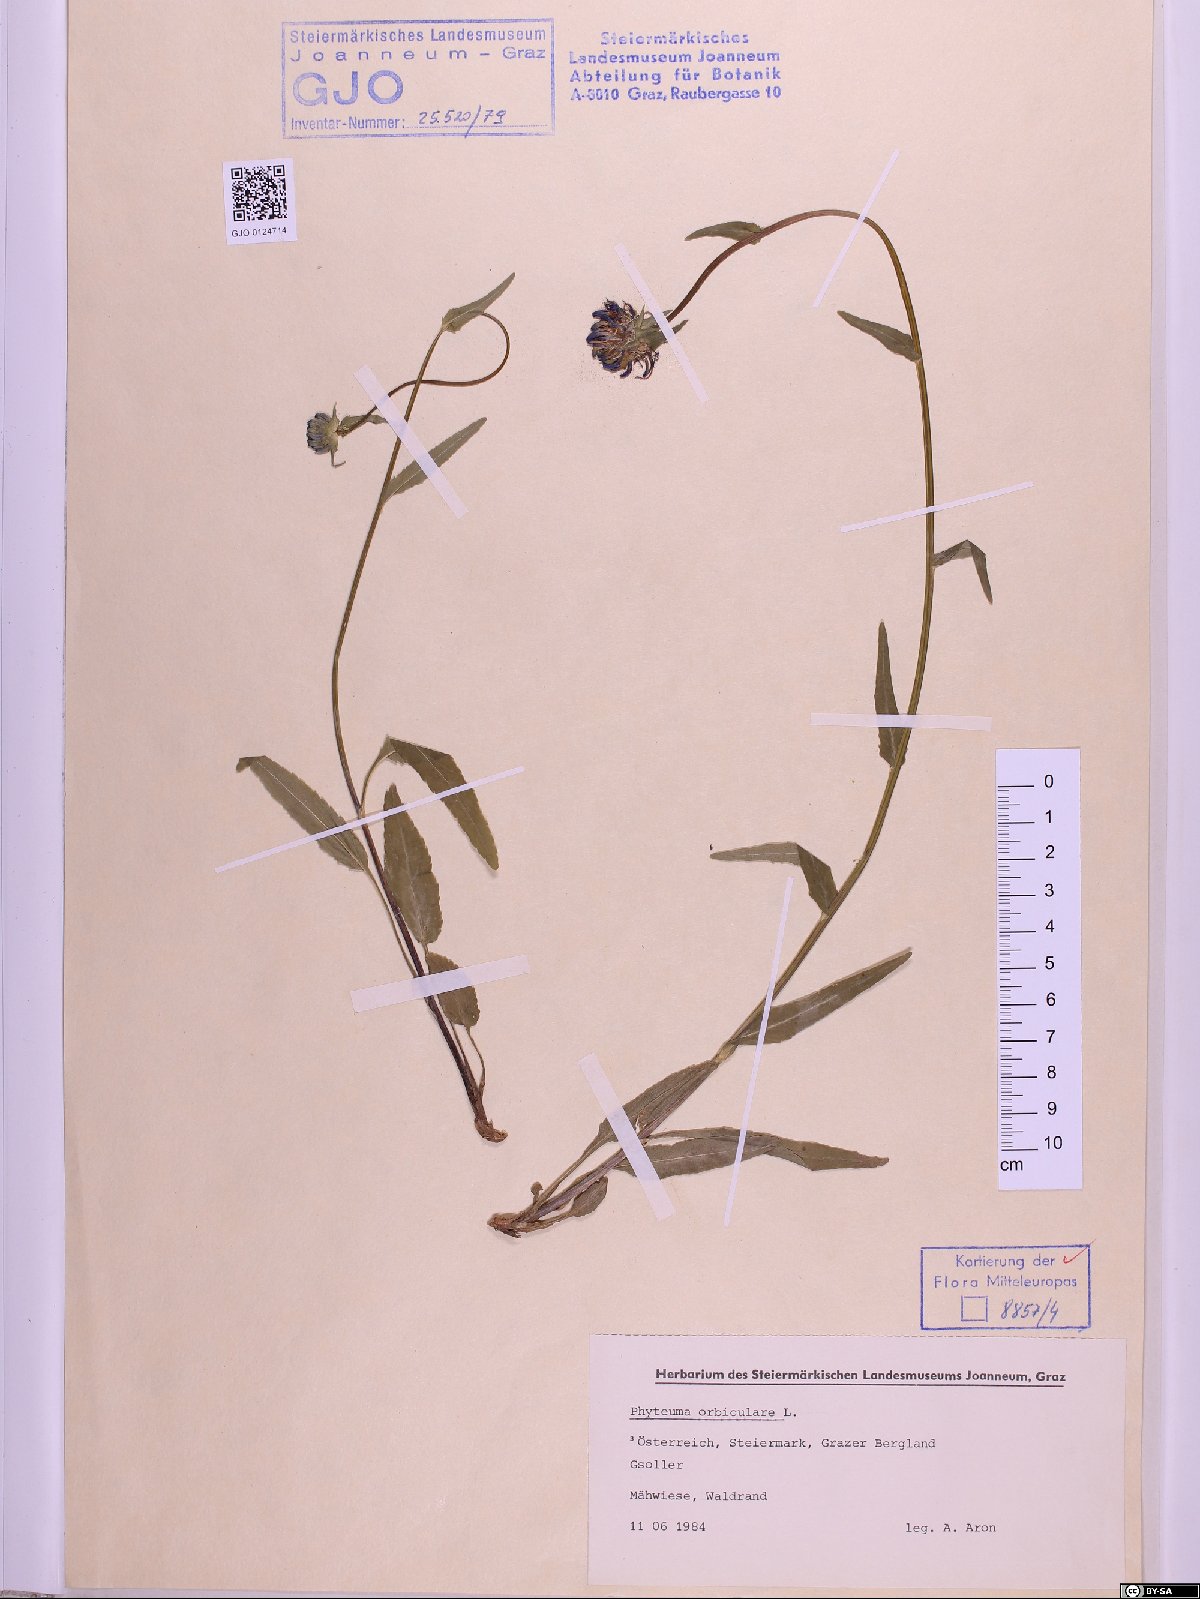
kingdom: Plantae
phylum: Tracheophyta
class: Magnoliopsida
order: Asterales
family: Campanulaceae
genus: Phyteuma
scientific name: Phyteuma orbiculare
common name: Round-headed rampion
